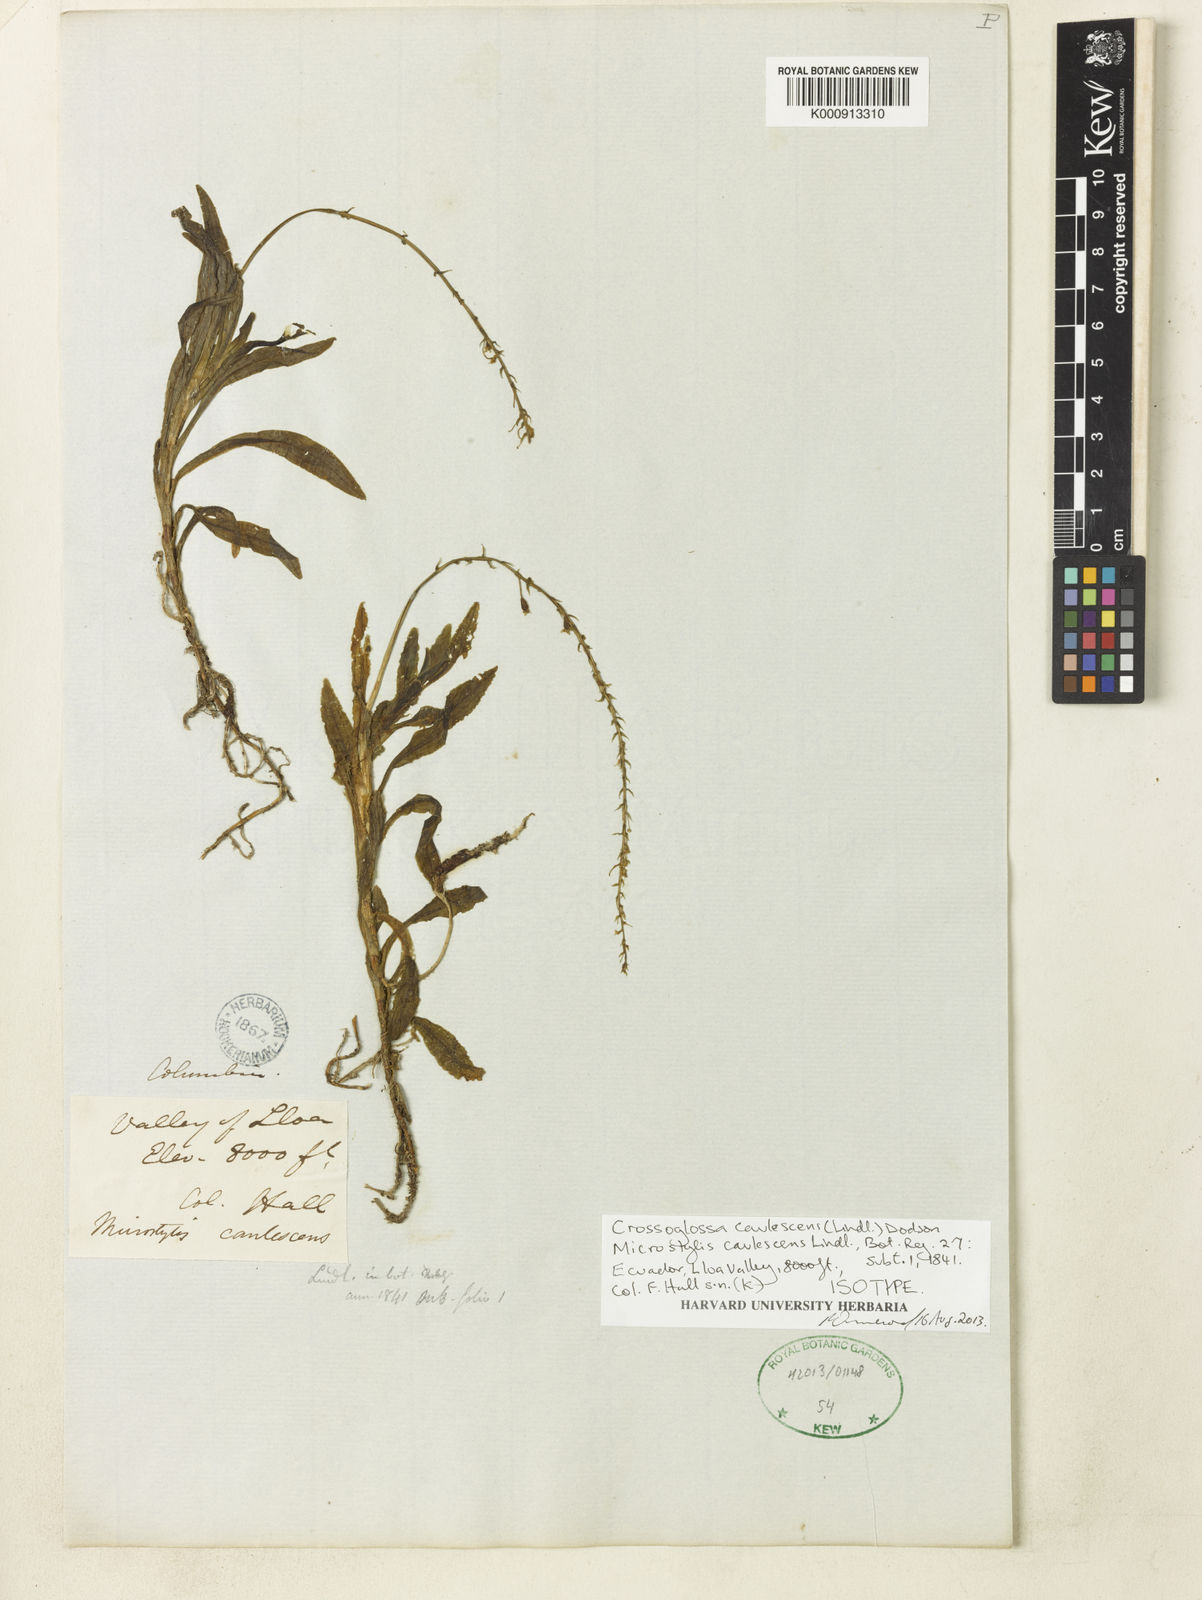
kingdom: Plantae
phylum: Tracheophyta
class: Liliopsida
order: Asparagales
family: Orchidaceae
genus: Crossoglossa
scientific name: Crossoglossa caulescens
